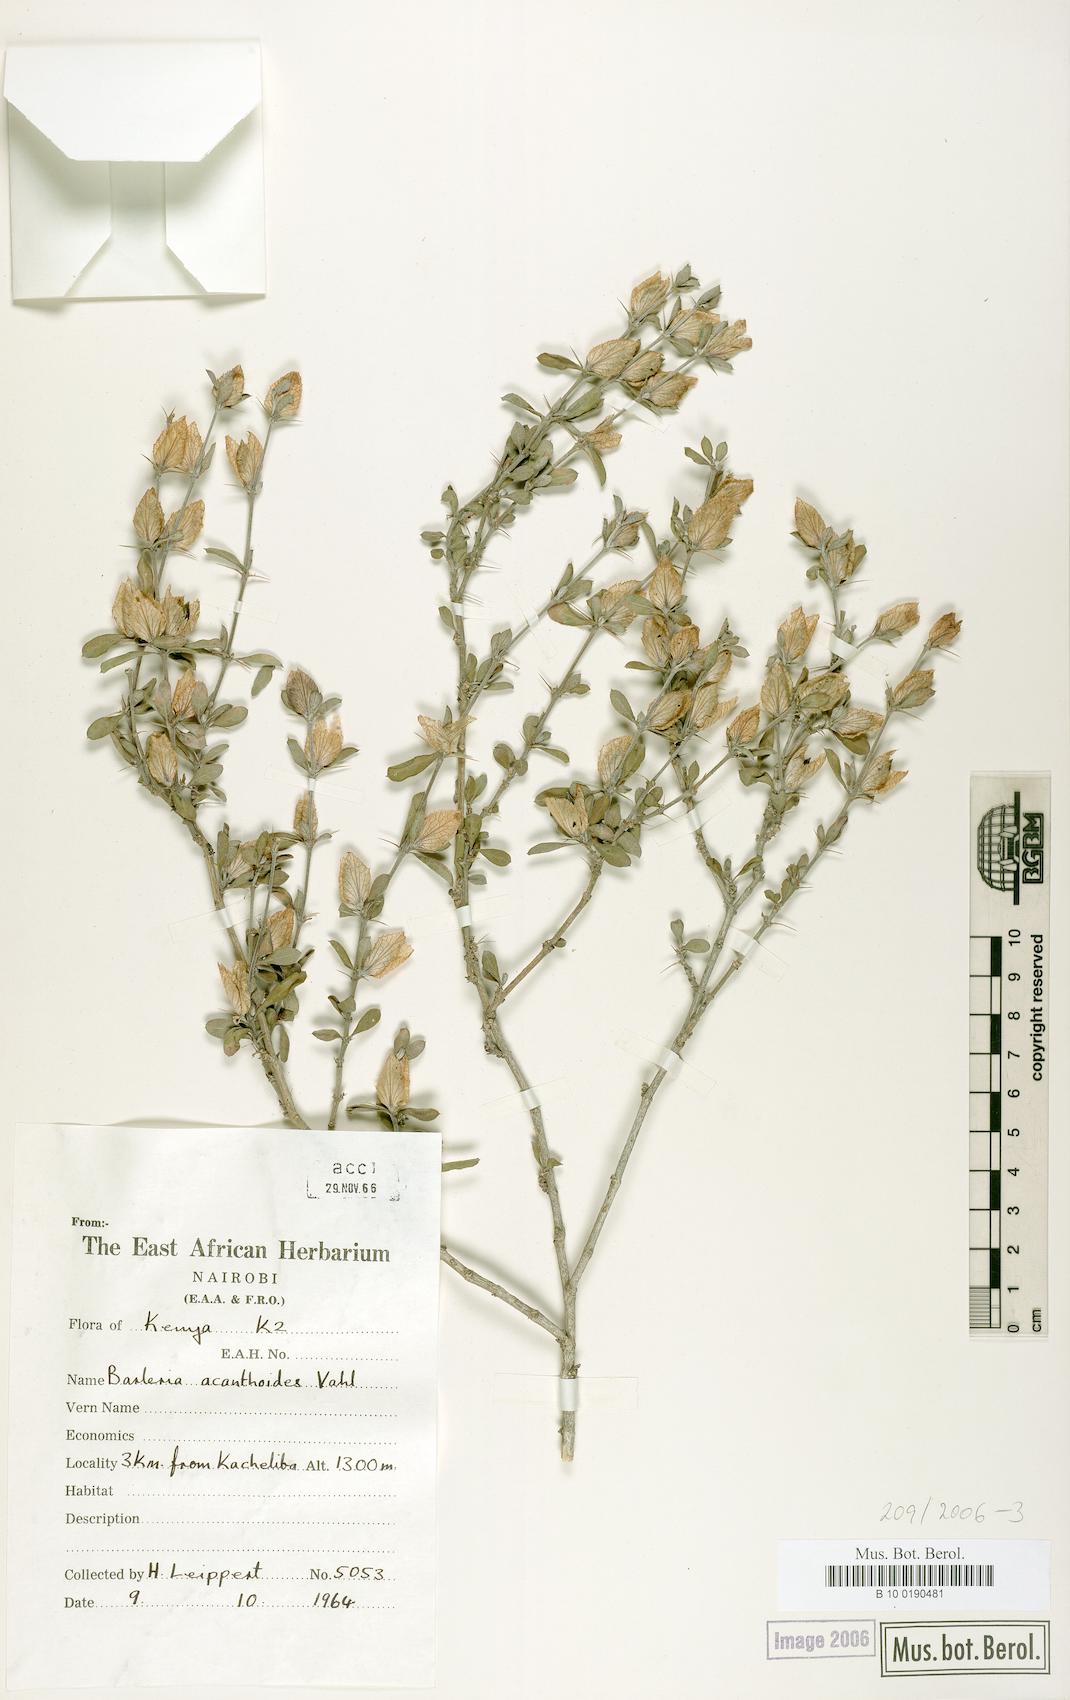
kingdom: Plantae
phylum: Tracheophyta
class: Magnoliopsida
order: Lamiales
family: Acanthaceae
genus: Barleria
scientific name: Barleria gracilispina
